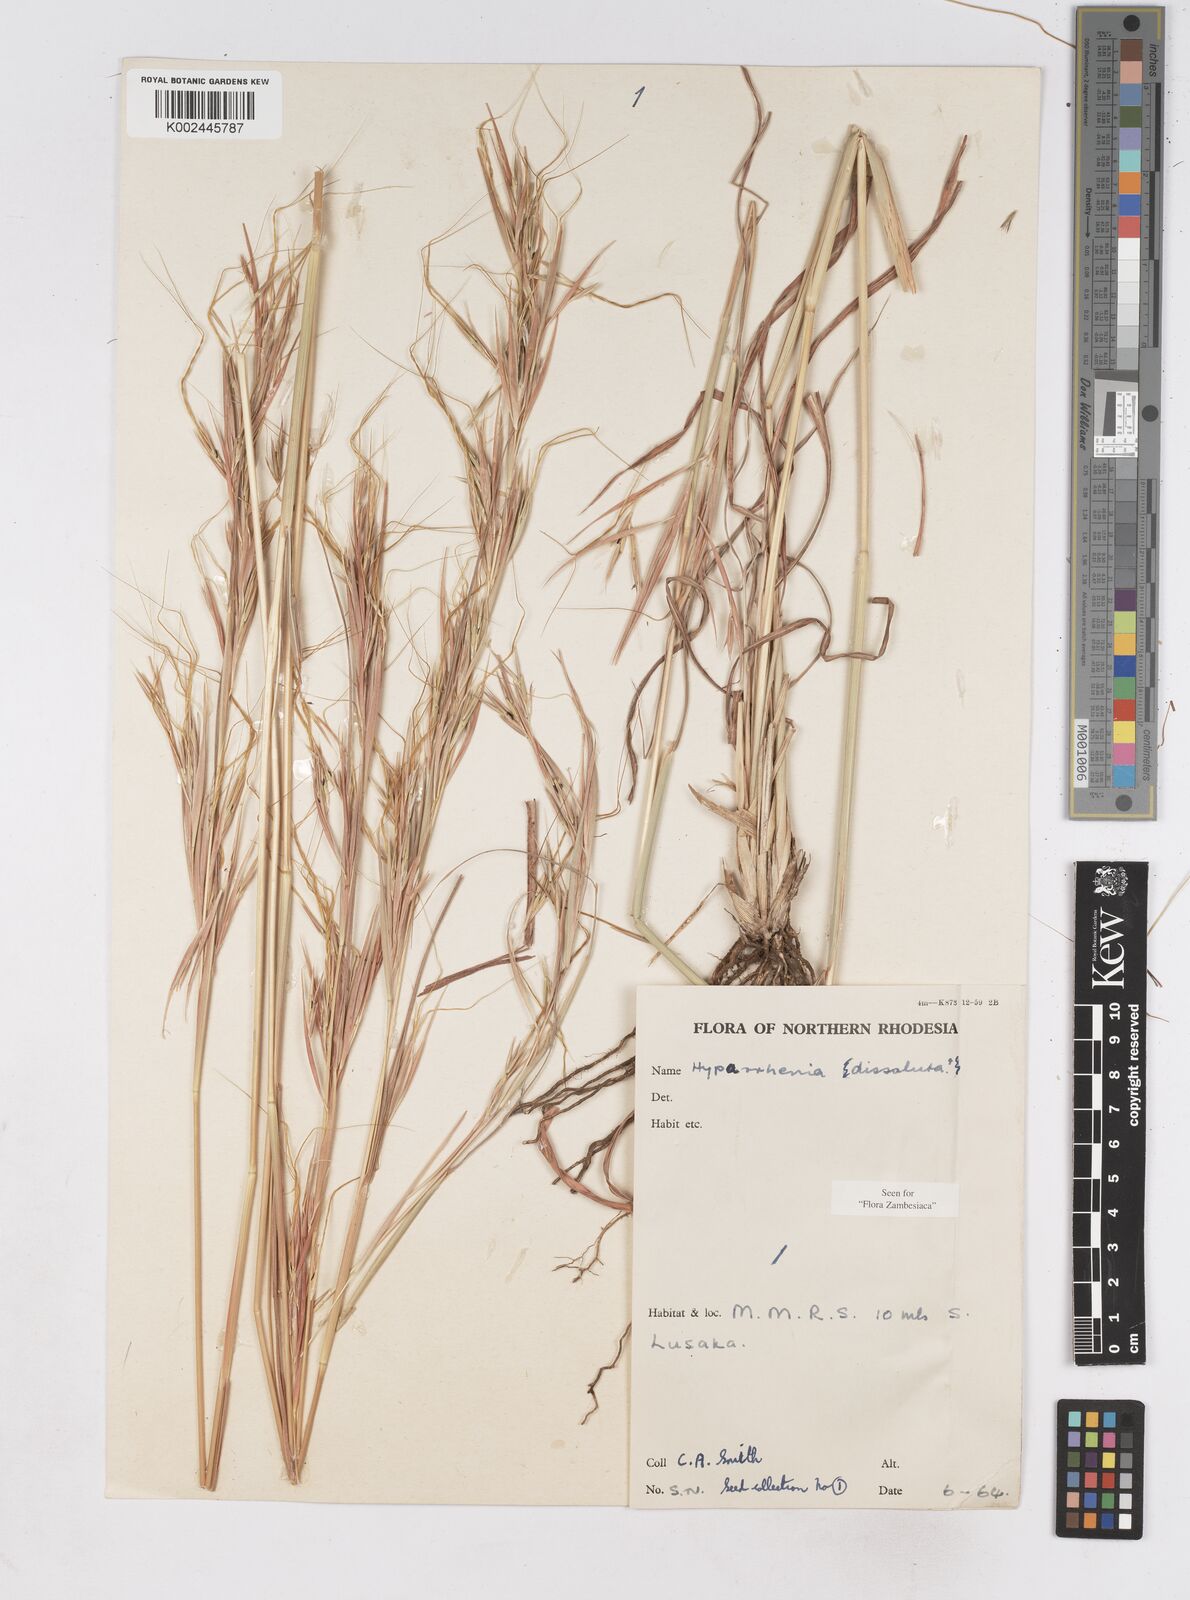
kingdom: Plantae
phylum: Tracheophyta
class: Liliopsida
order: Poales
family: Poaceae
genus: Hyperthelia
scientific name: Hyperthelia dissoluta
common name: Yellow thatching grass
